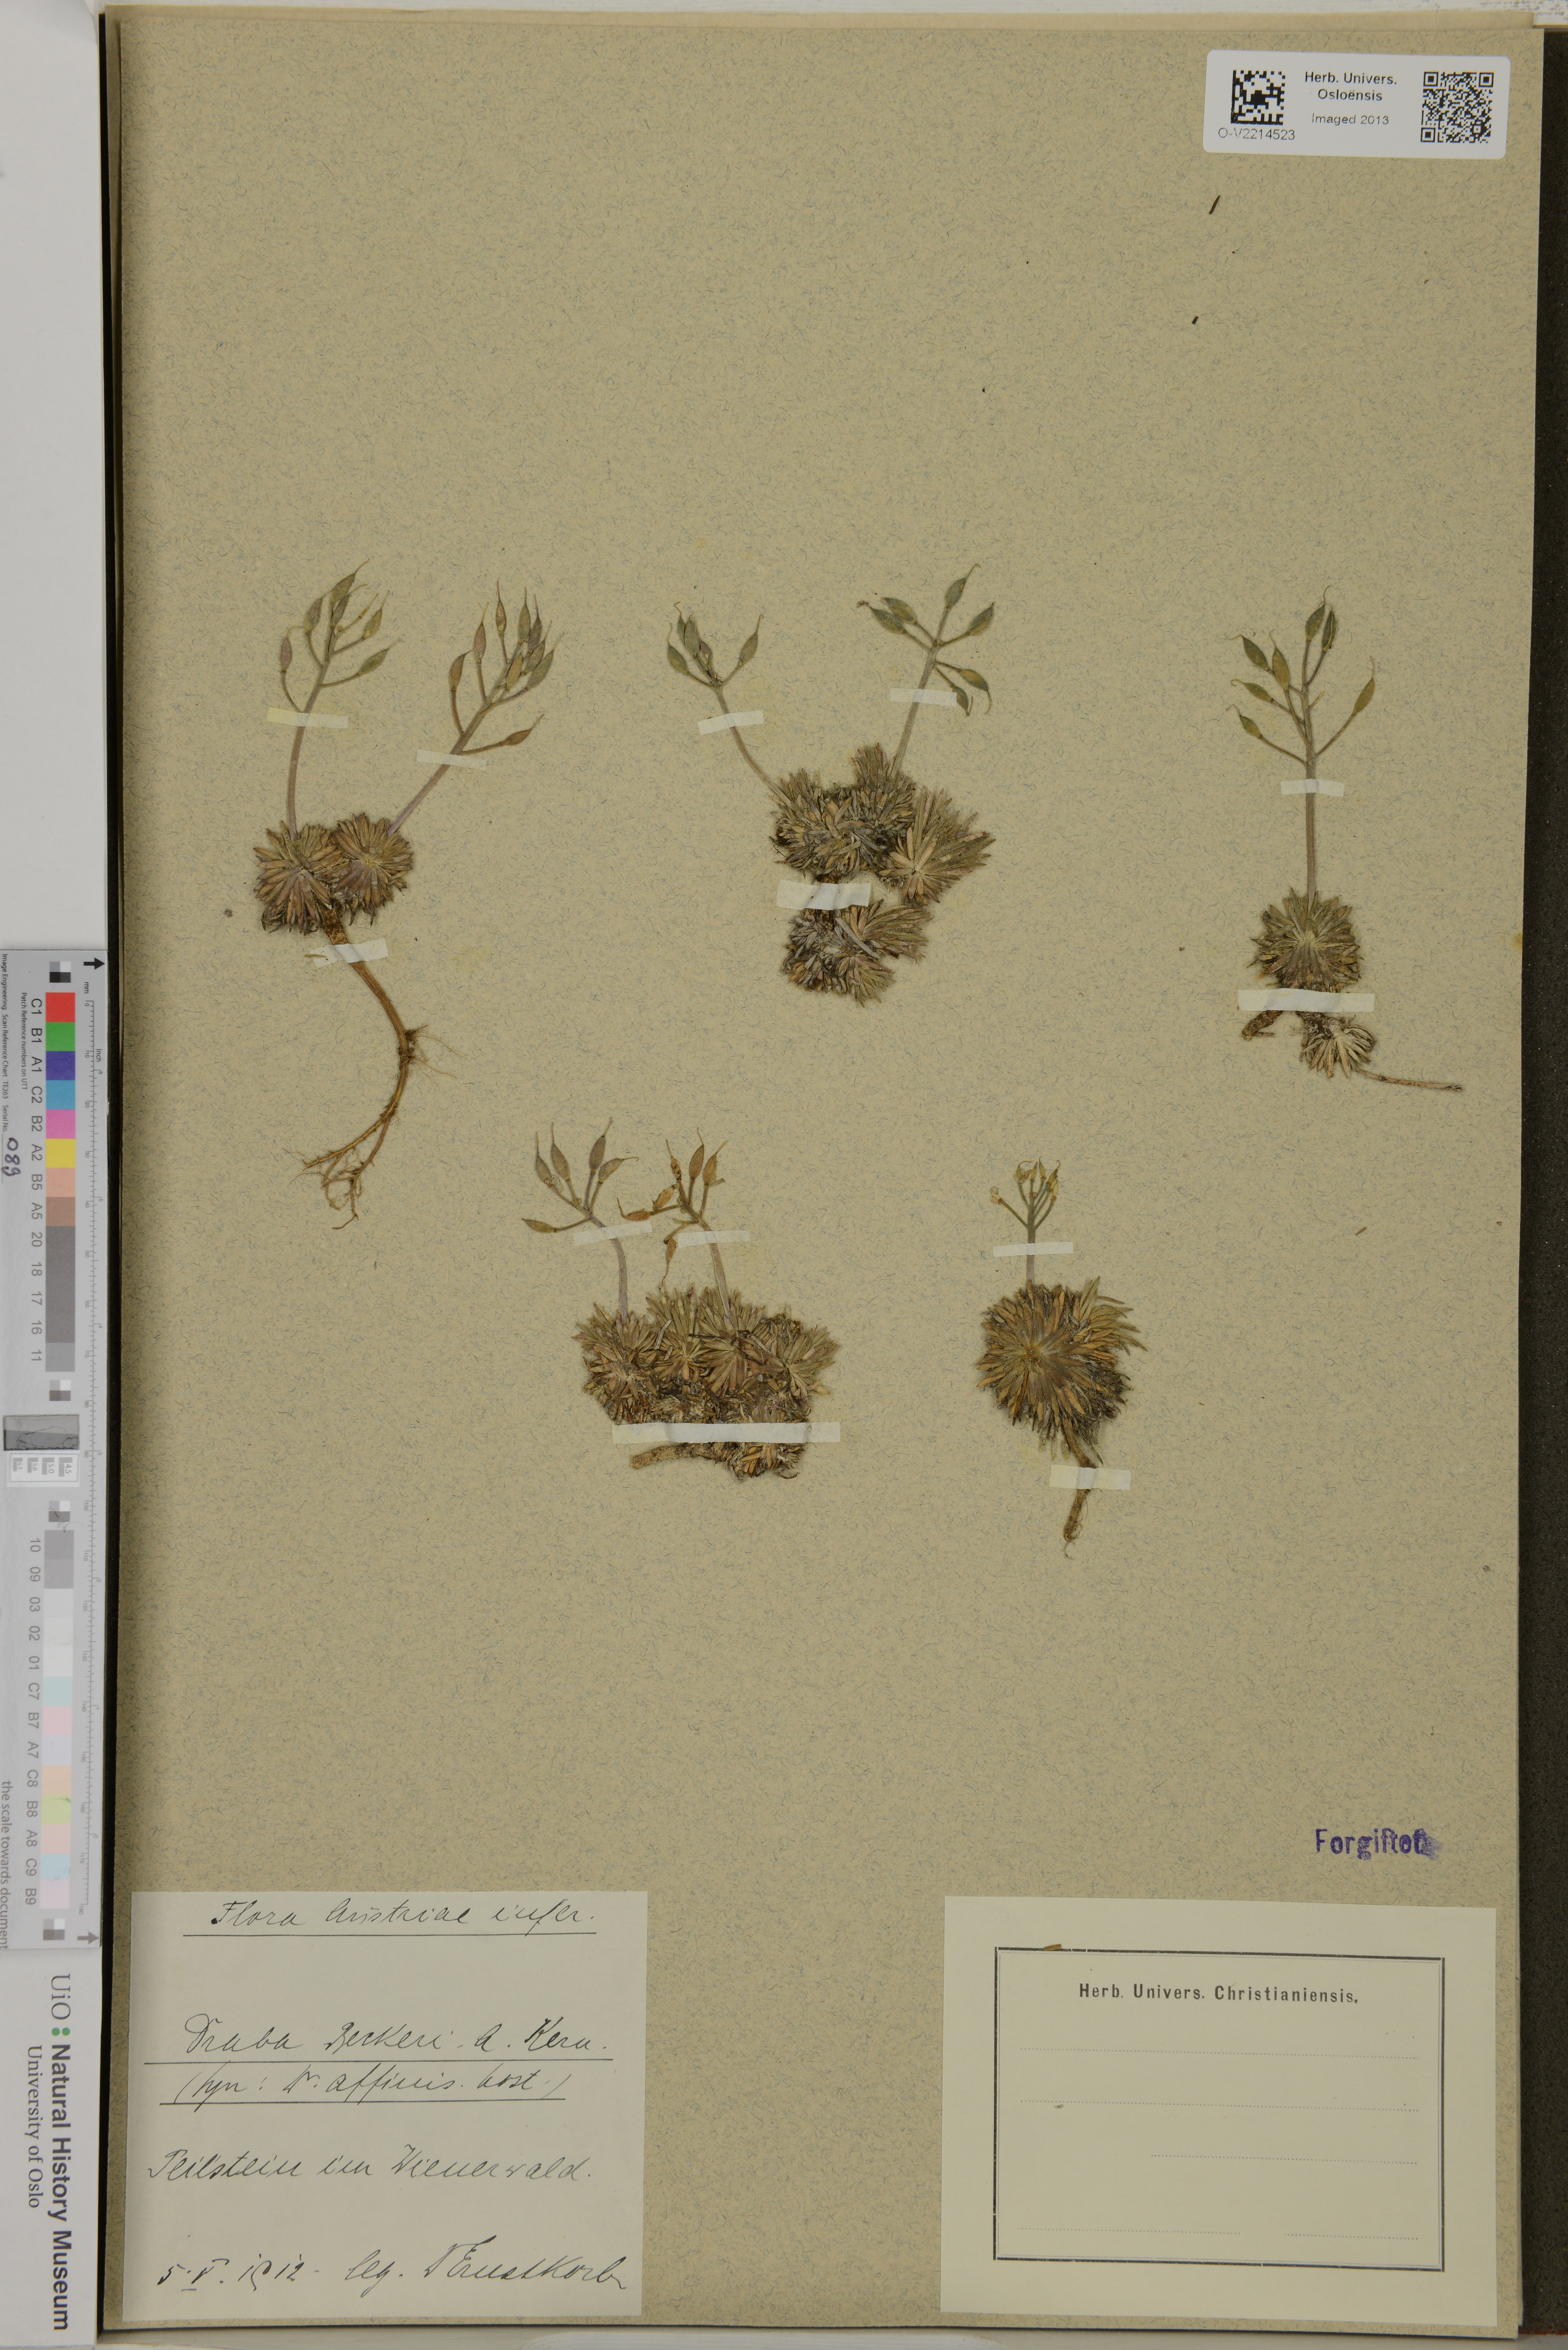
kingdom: Plantae
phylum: Tracheophyta
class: Magnoliopsida
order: Brassicales
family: Brassicaceae
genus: Draba
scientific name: Draba
